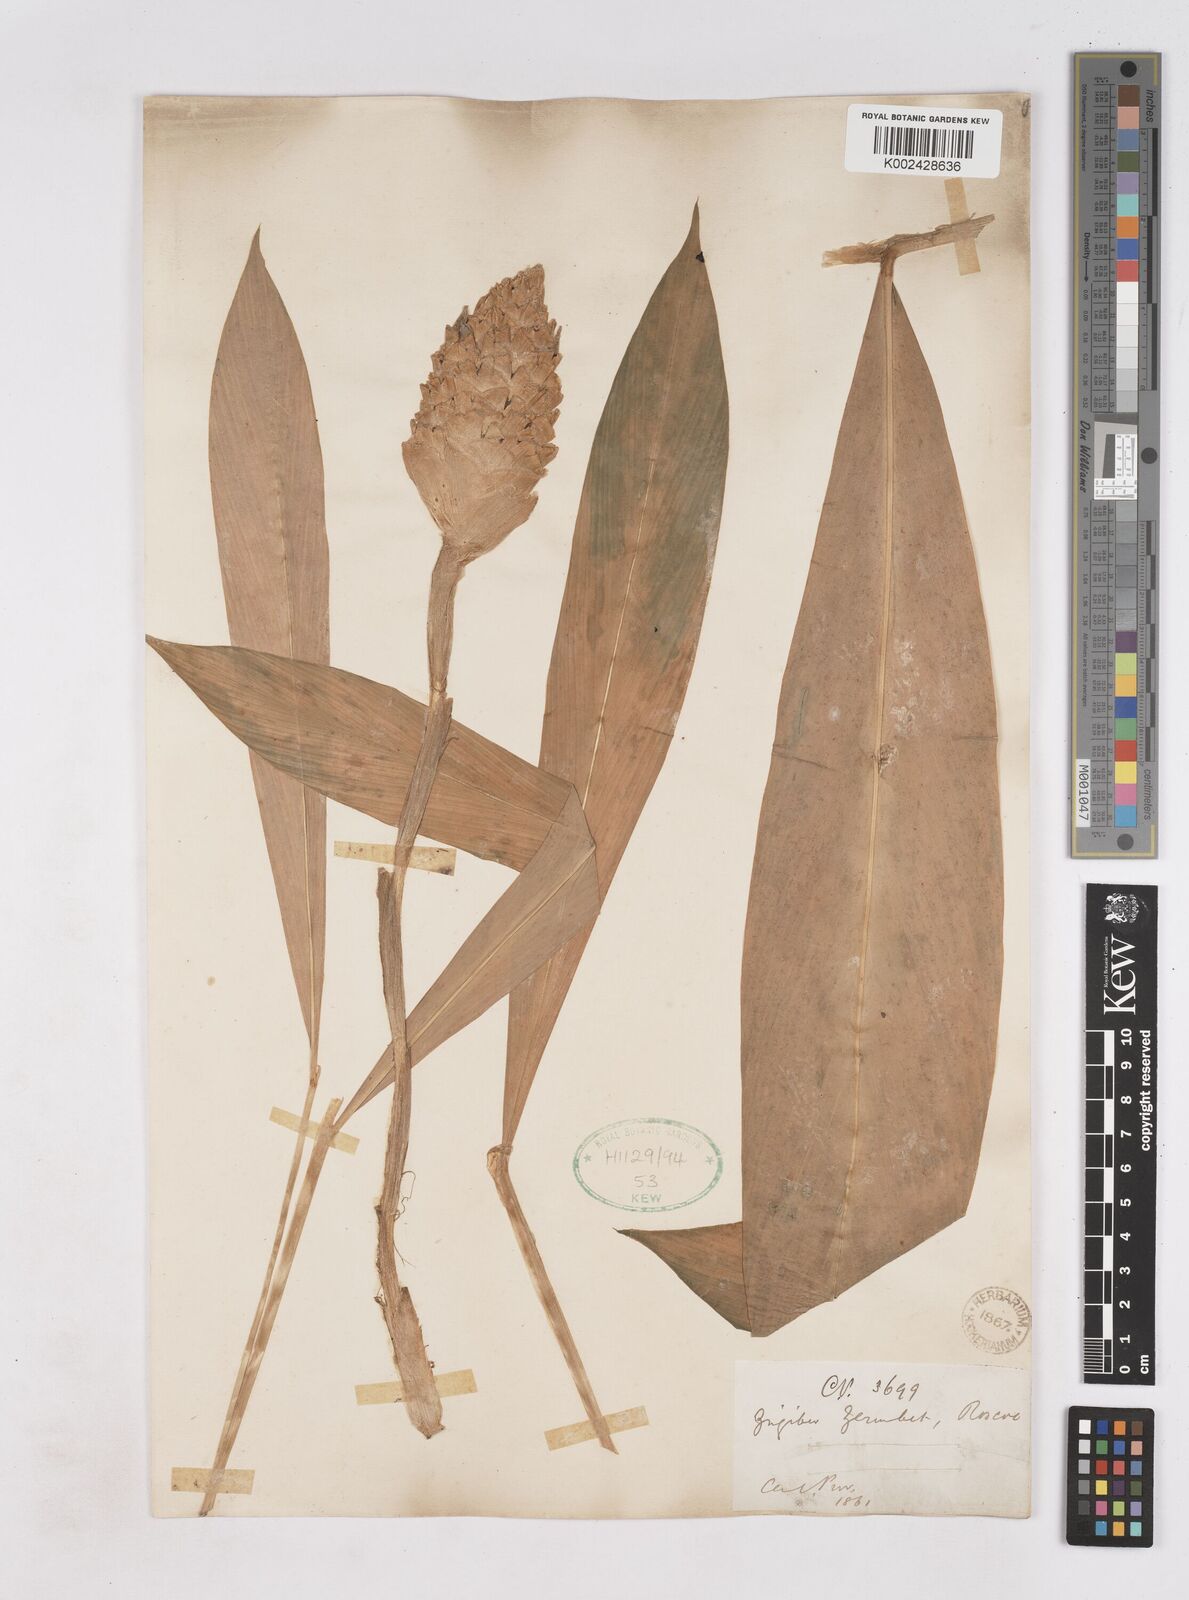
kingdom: Plantae
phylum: Tracheophyta
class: Liliopsida
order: Zingiberales
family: Zingiberaceae
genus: Zingiber
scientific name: Zingiber zerumbet
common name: Bitter ginger
